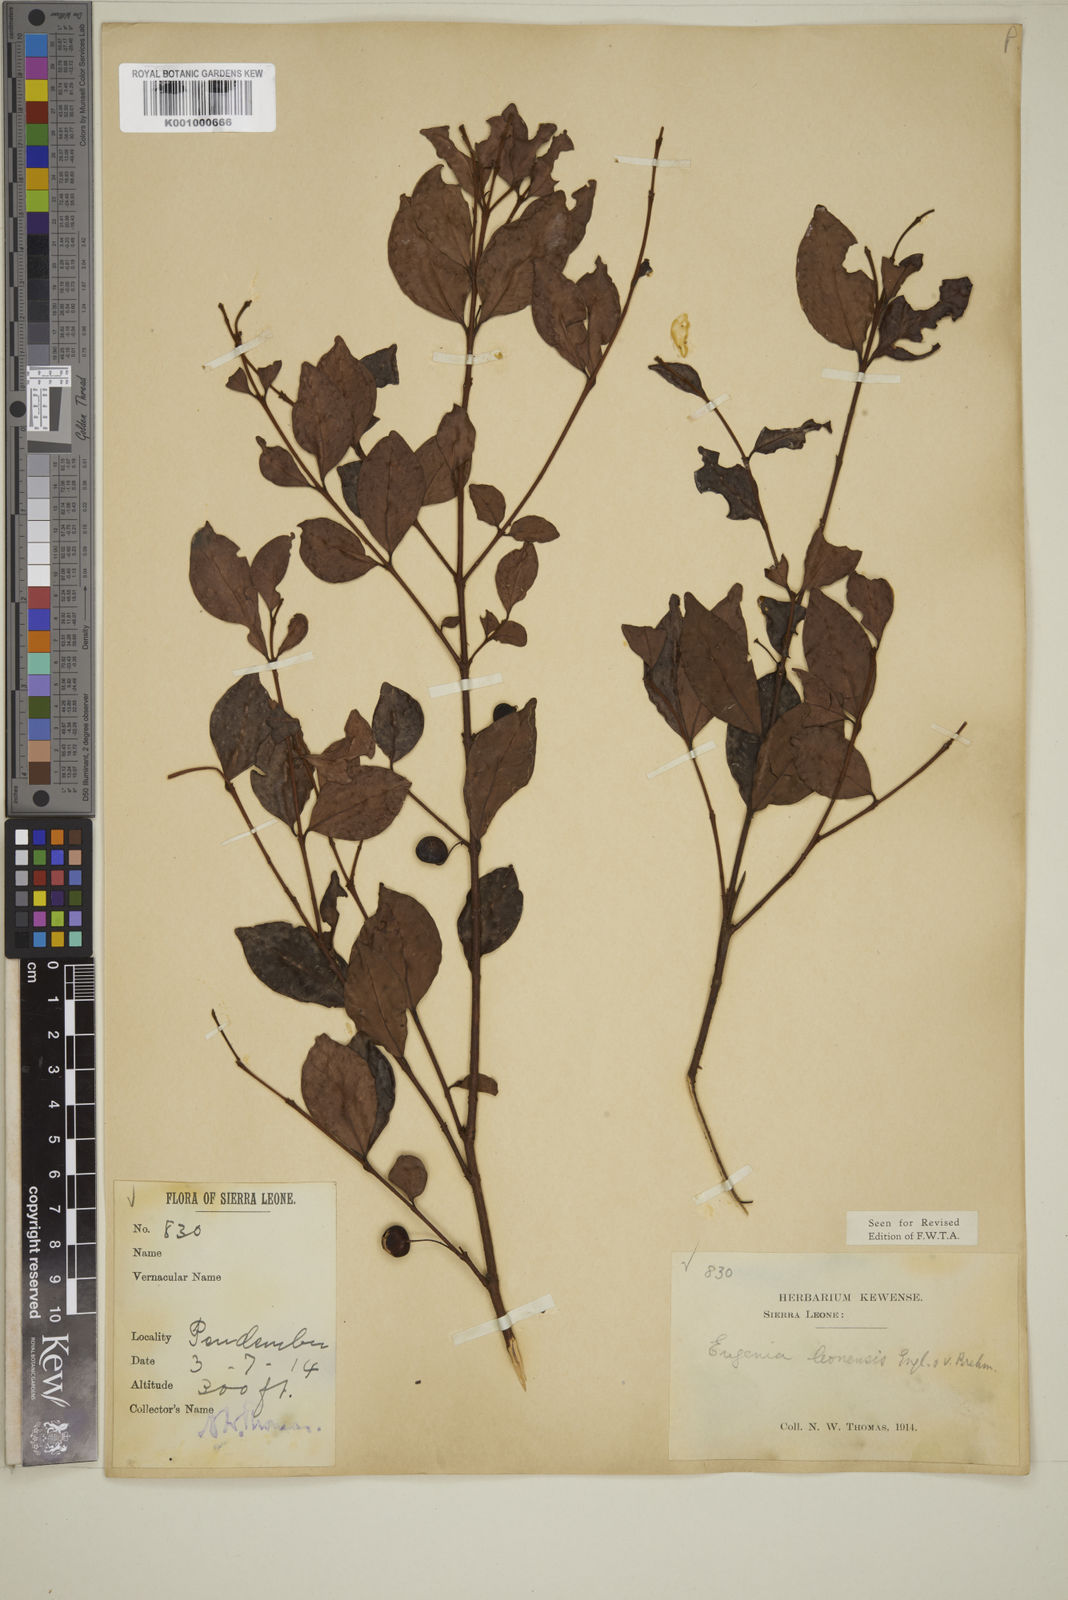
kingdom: Plantae
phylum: Tracheophyta
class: Magnoliopsida
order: Myrtales
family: Myrtaceae
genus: Eugenia
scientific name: Eugenia leonensis
